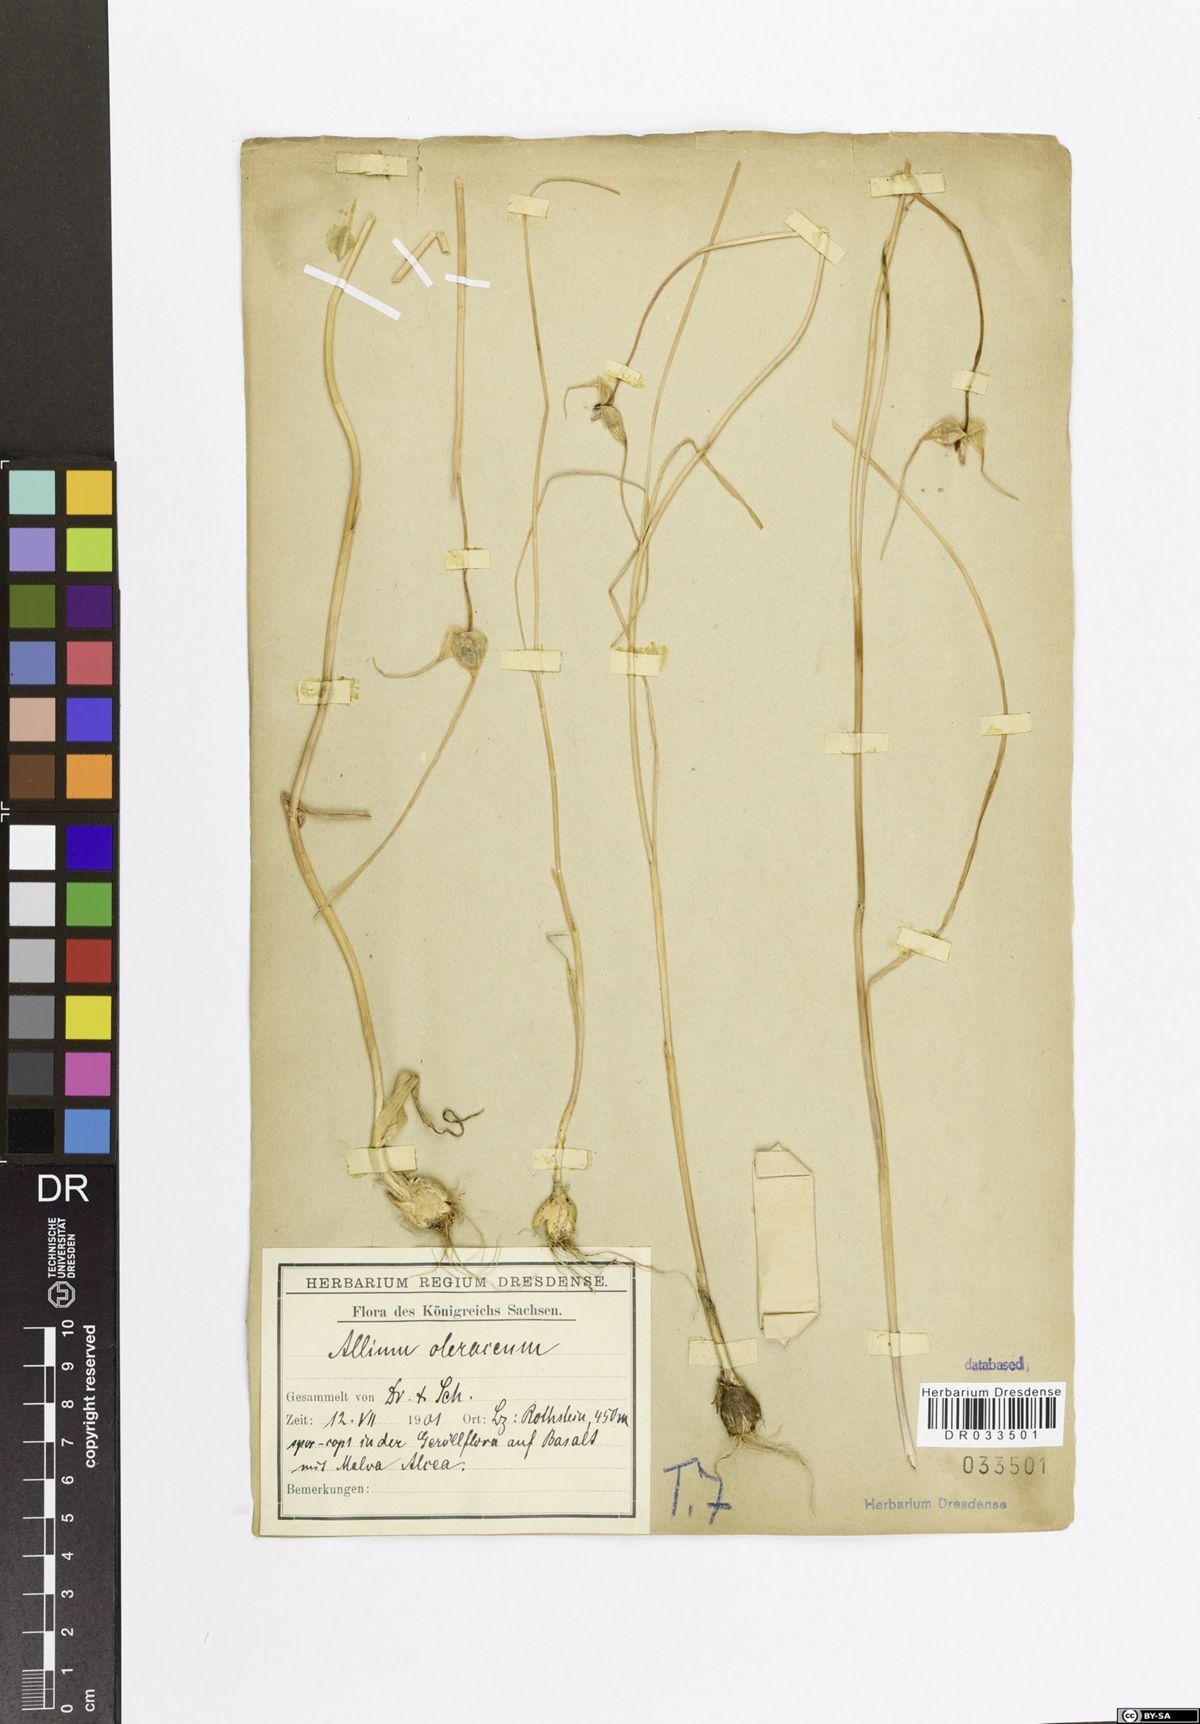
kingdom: Plantae
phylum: Tracheophyta
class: Liliopsida
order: Asparagales
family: Amaryllidaceae
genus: Allium
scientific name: Allium oleraceum
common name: Field garlic
